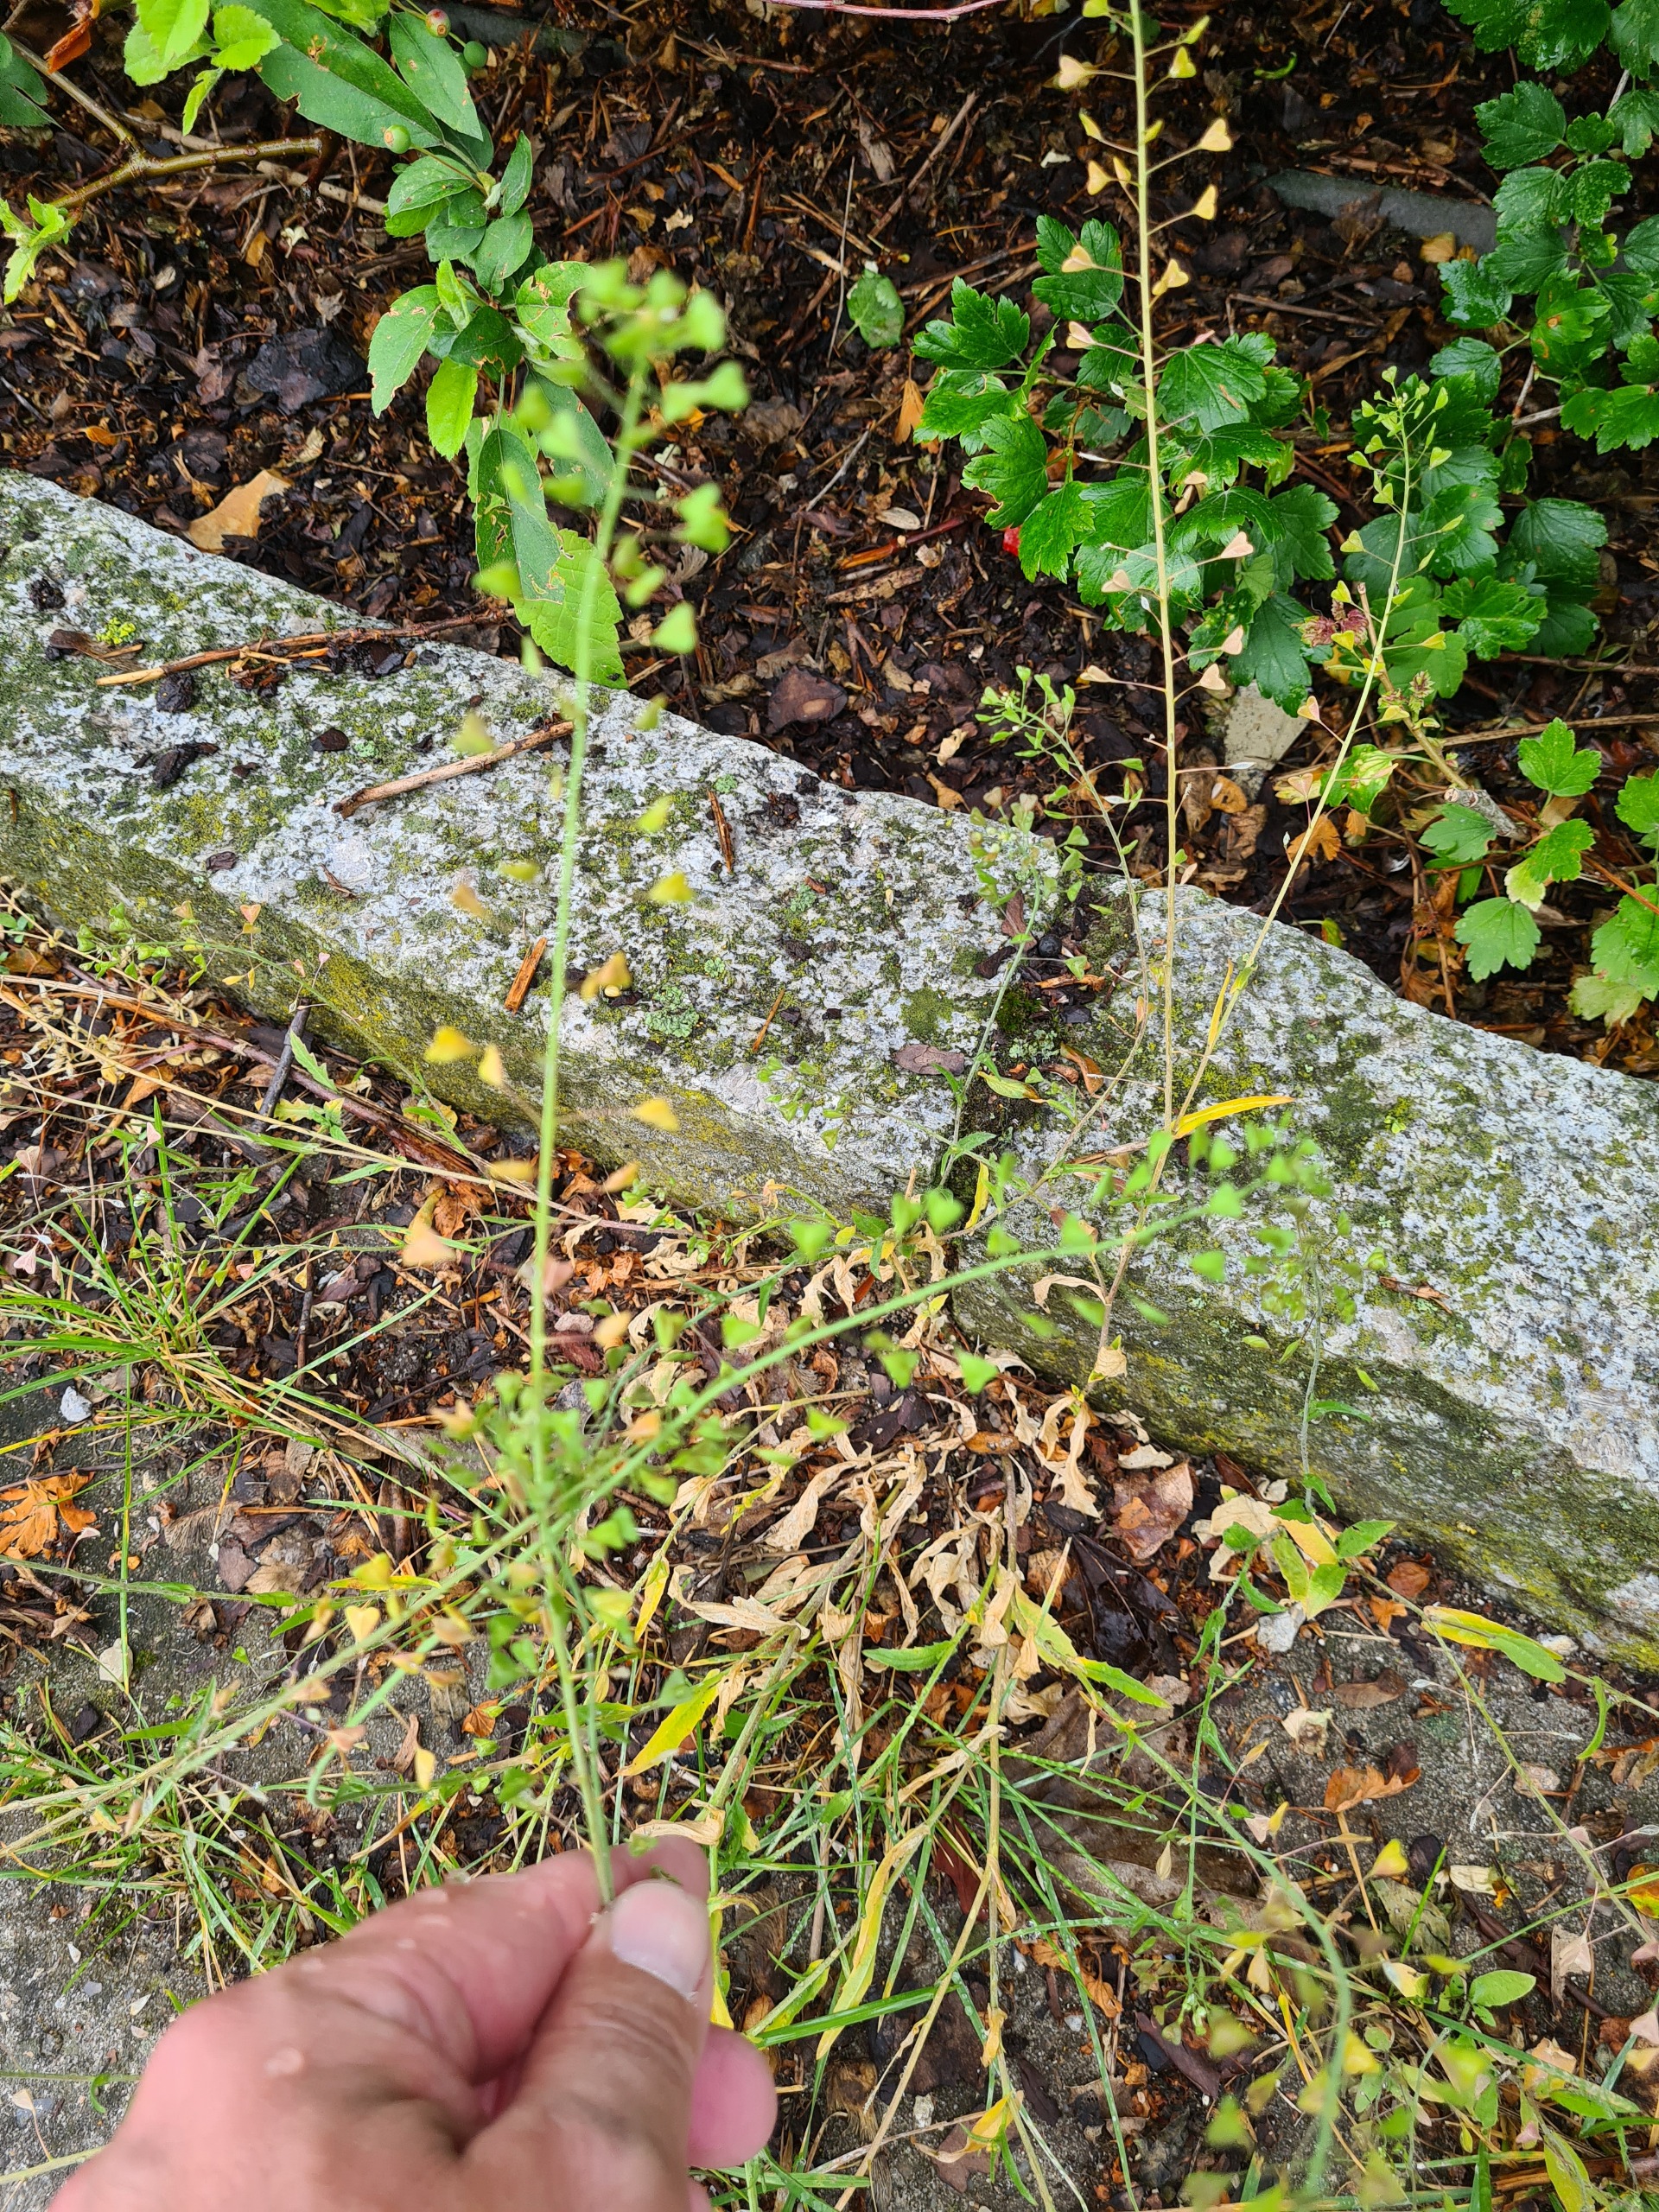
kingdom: Plantae
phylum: Tracheophyta
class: Magnoliopsida
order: Brassicales
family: Brassicaceae
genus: Capsella
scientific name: Capsella bursa-pastoris
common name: Hyrdetaske
